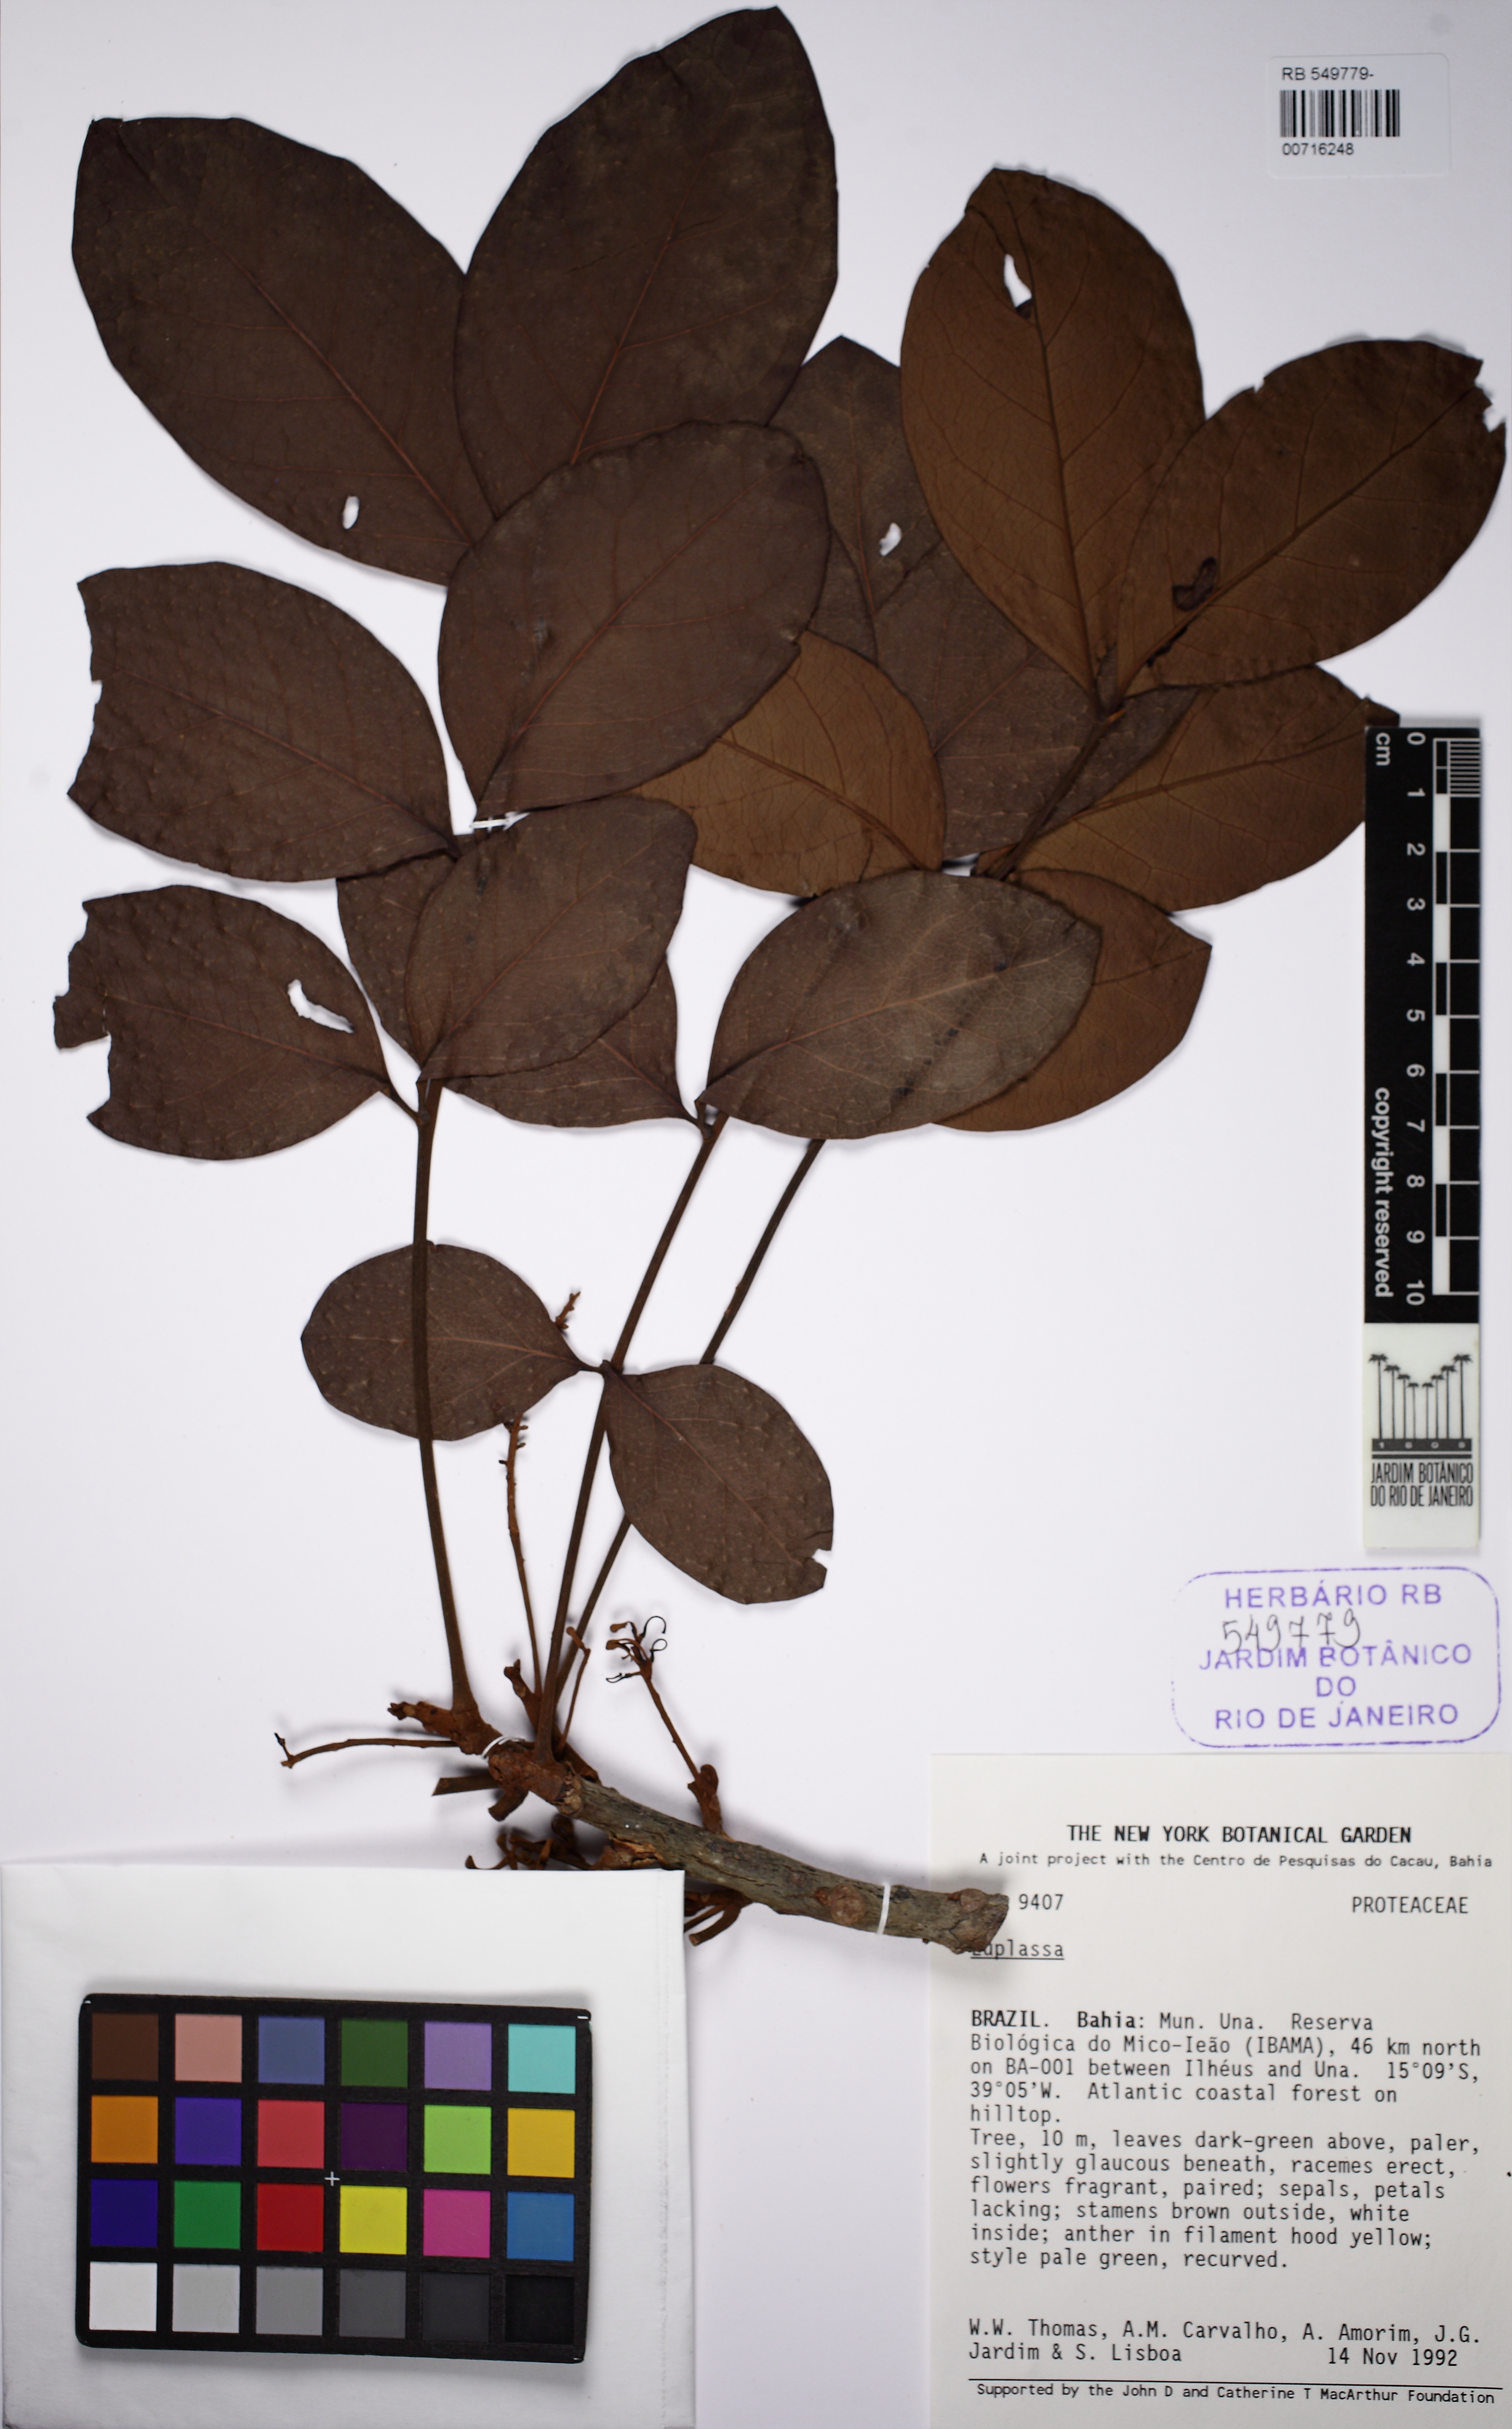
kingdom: Plantae
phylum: Tracheophyta
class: Magnoliopsida
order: Proteales
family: Proteaceae
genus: Euplassa
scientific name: Euplassa
